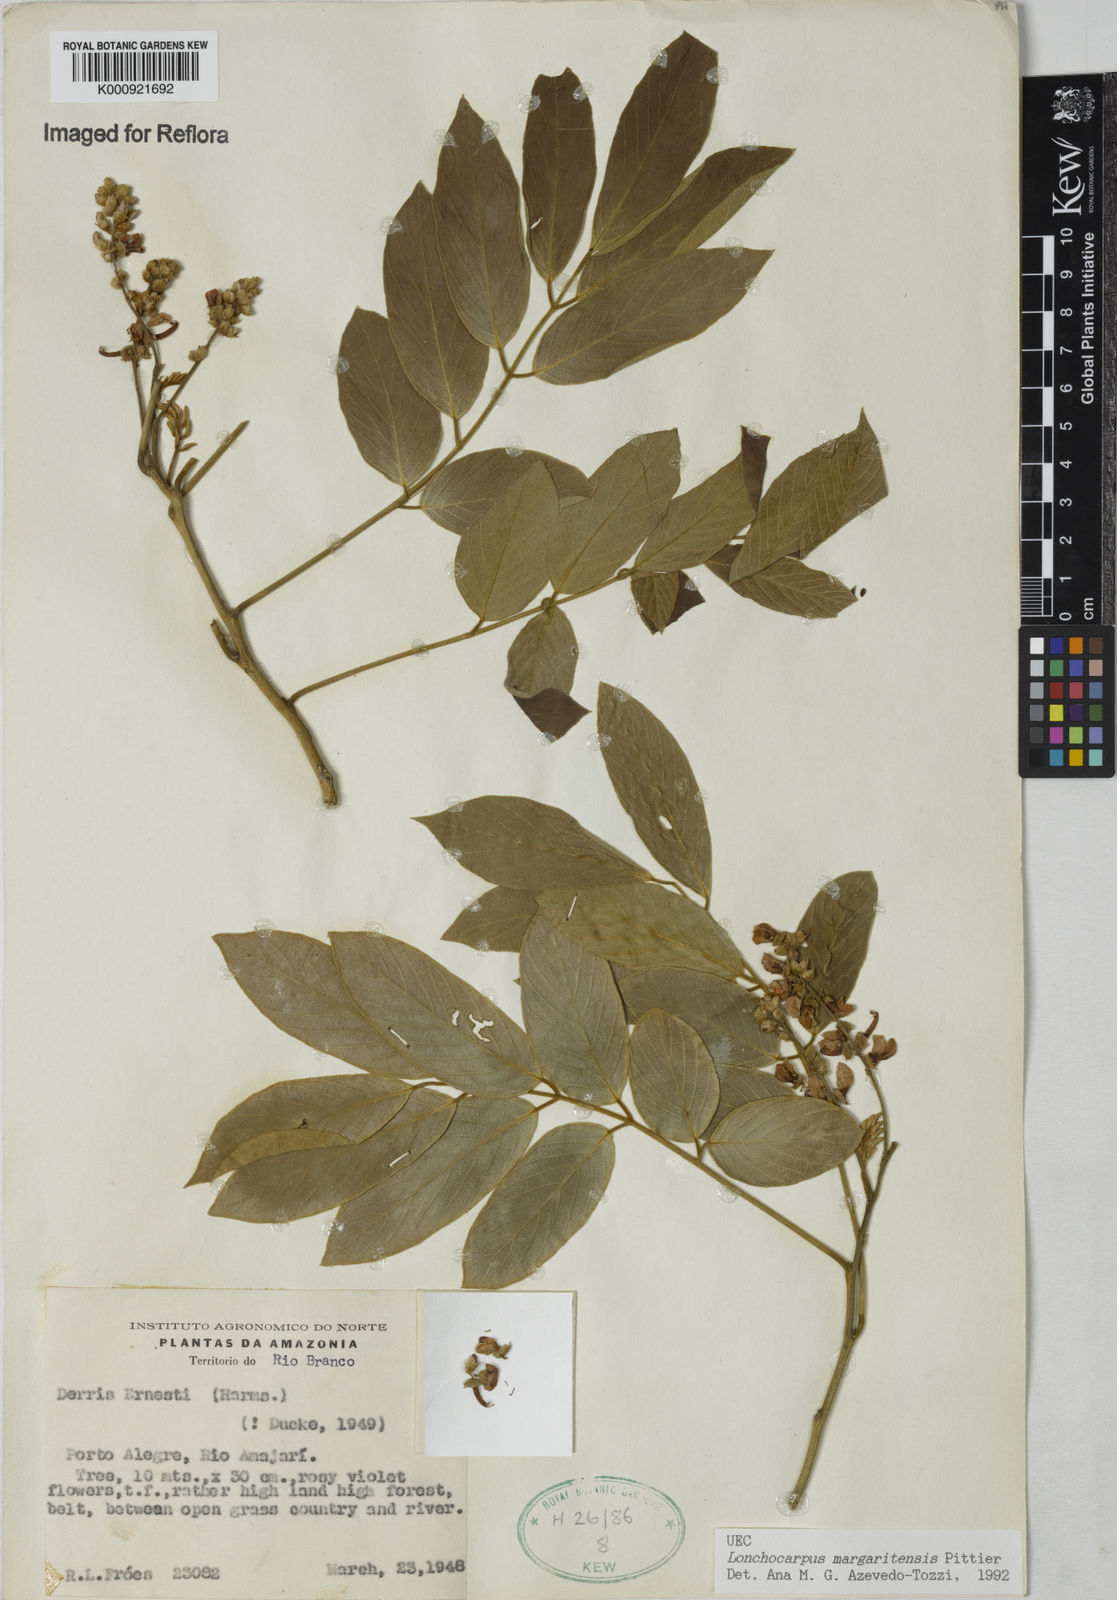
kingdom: Plantae
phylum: Tracheophyta
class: Magnoliopsida
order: Fabales
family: Fabaceae
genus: Lonchocarpus
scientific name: Lonchocarpus hedyosmus
